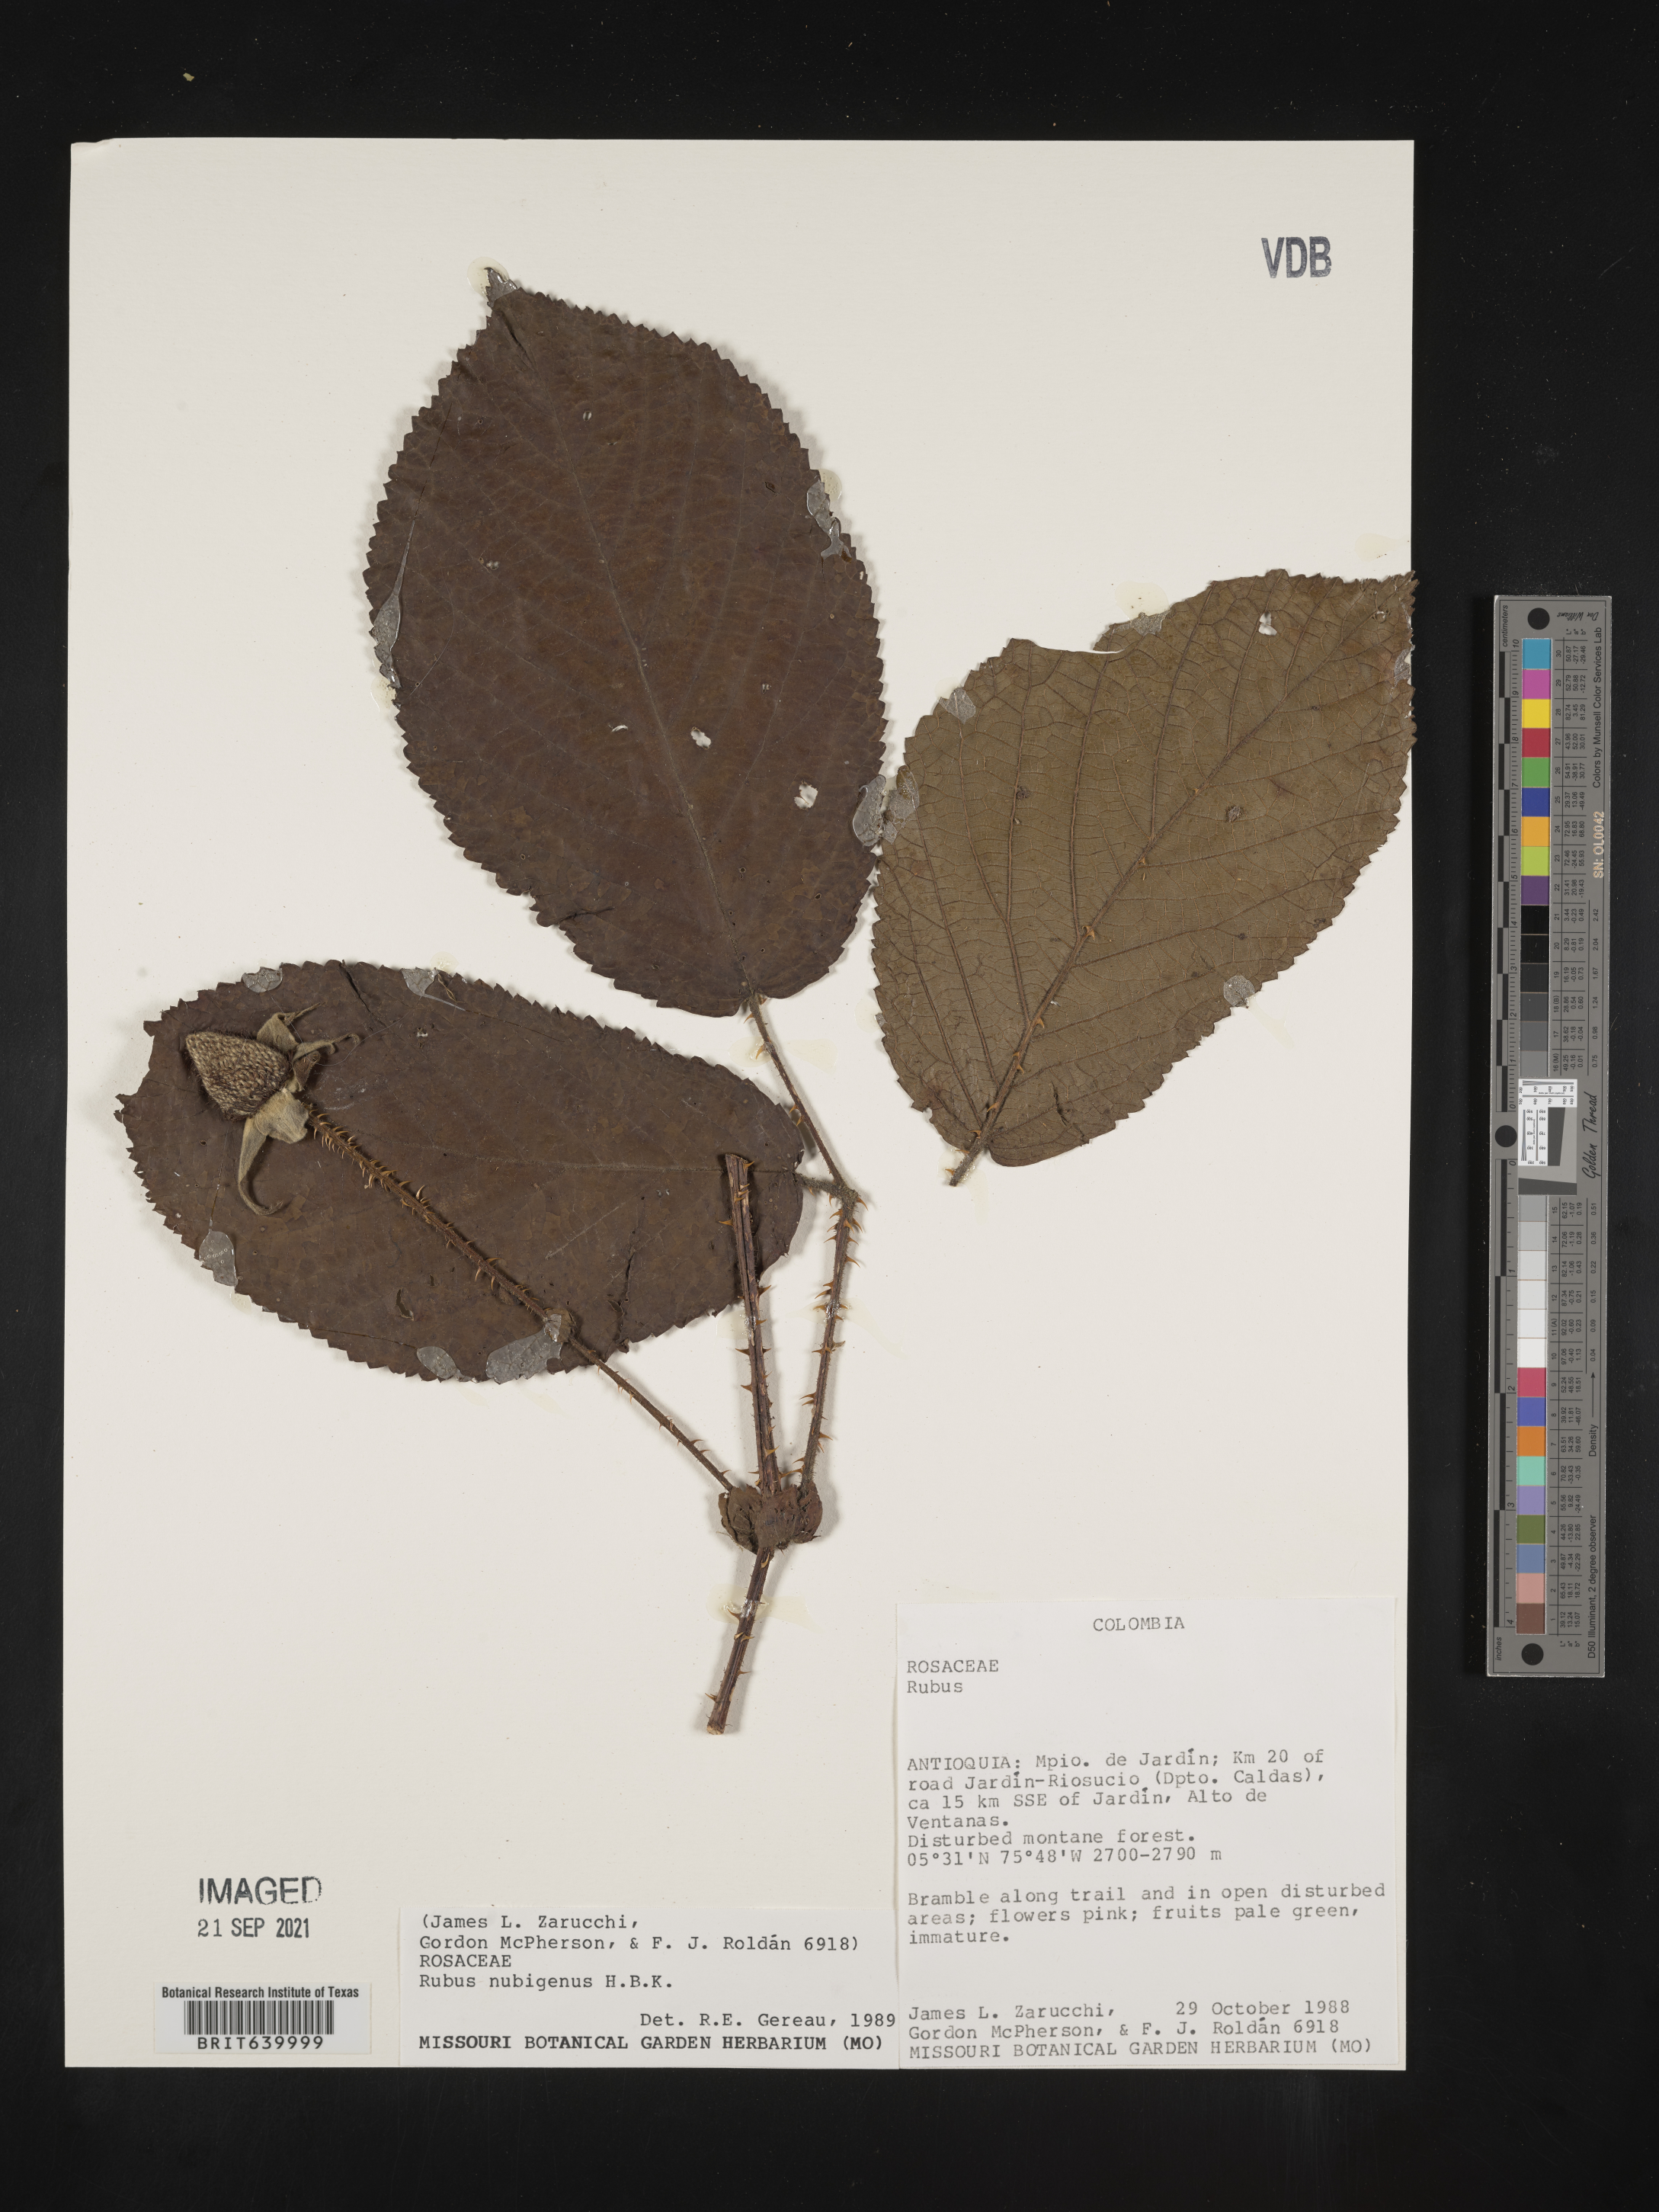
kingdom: Plantae
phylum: Tracheophyta
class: Magnoliopsida
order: Rosales
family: Rosaceae
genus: Rubus
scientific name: Rubus
